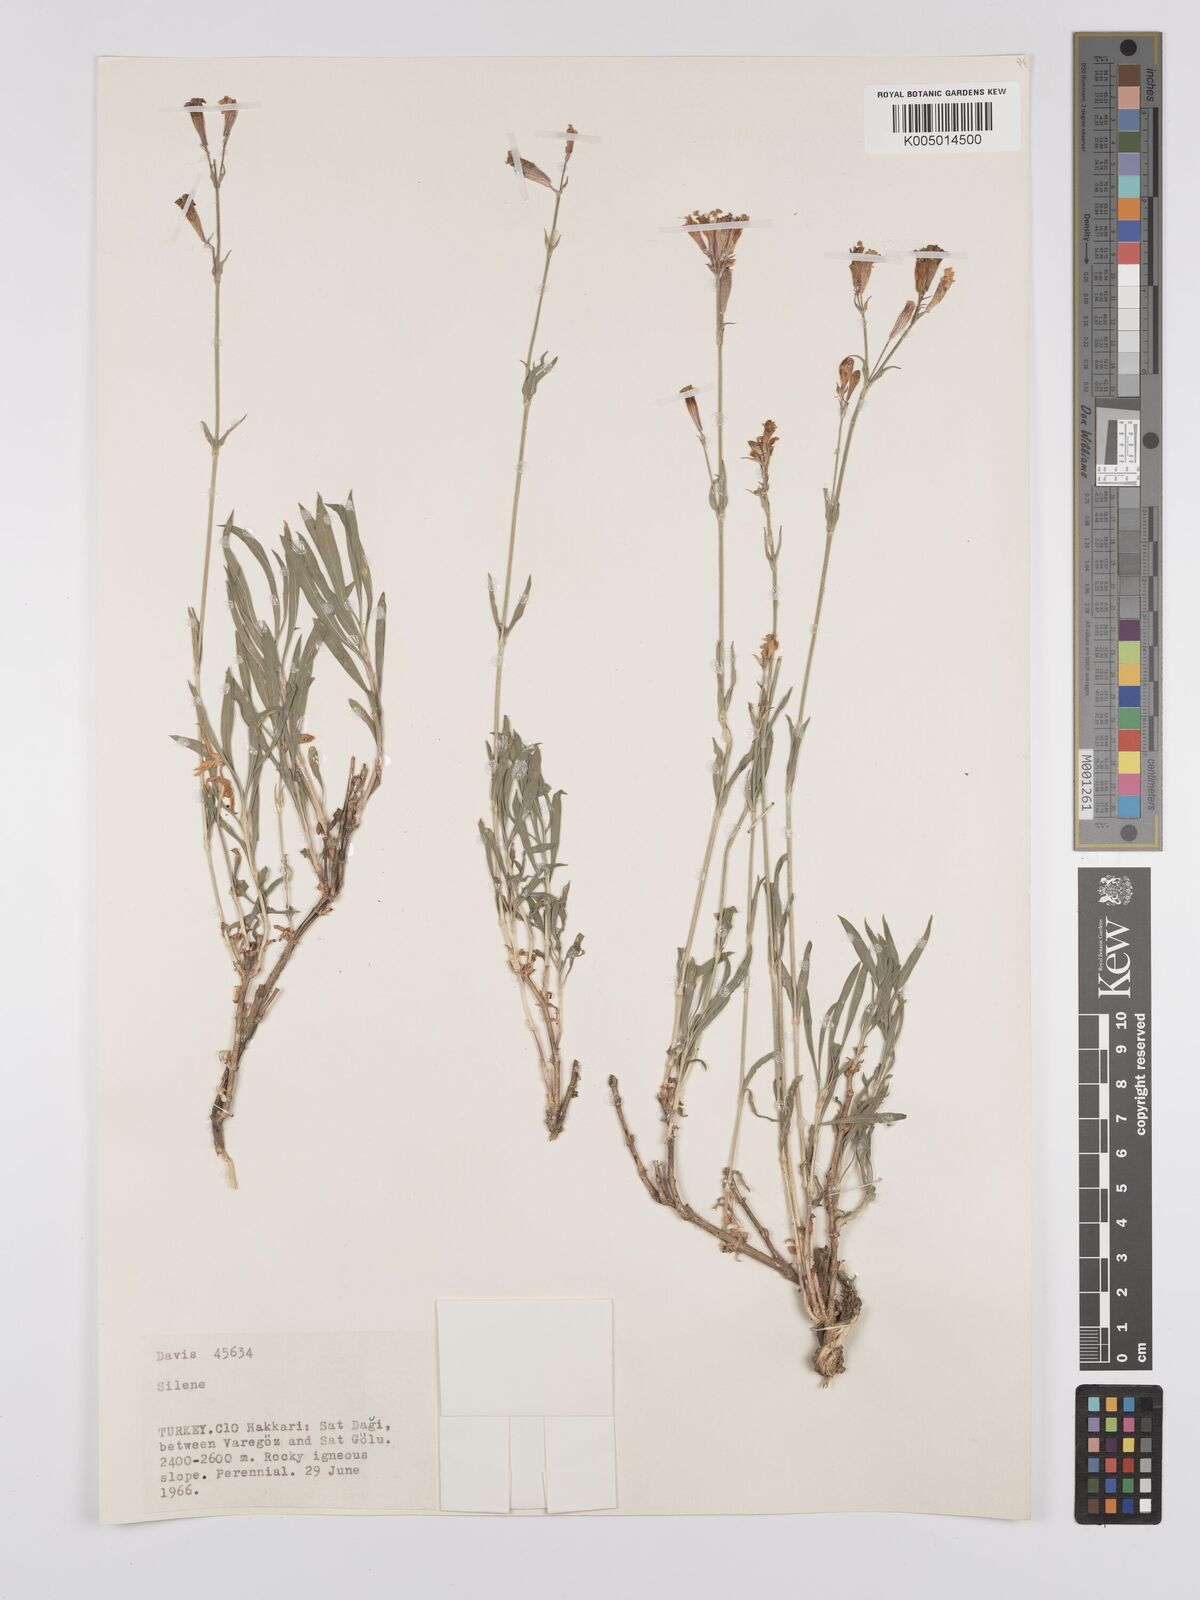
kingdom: Plantae
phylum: Tracheophyta
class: Magnoliopsida
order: Caryophyllales
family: Caryophyllaceae
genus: Silene
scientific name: Silene
